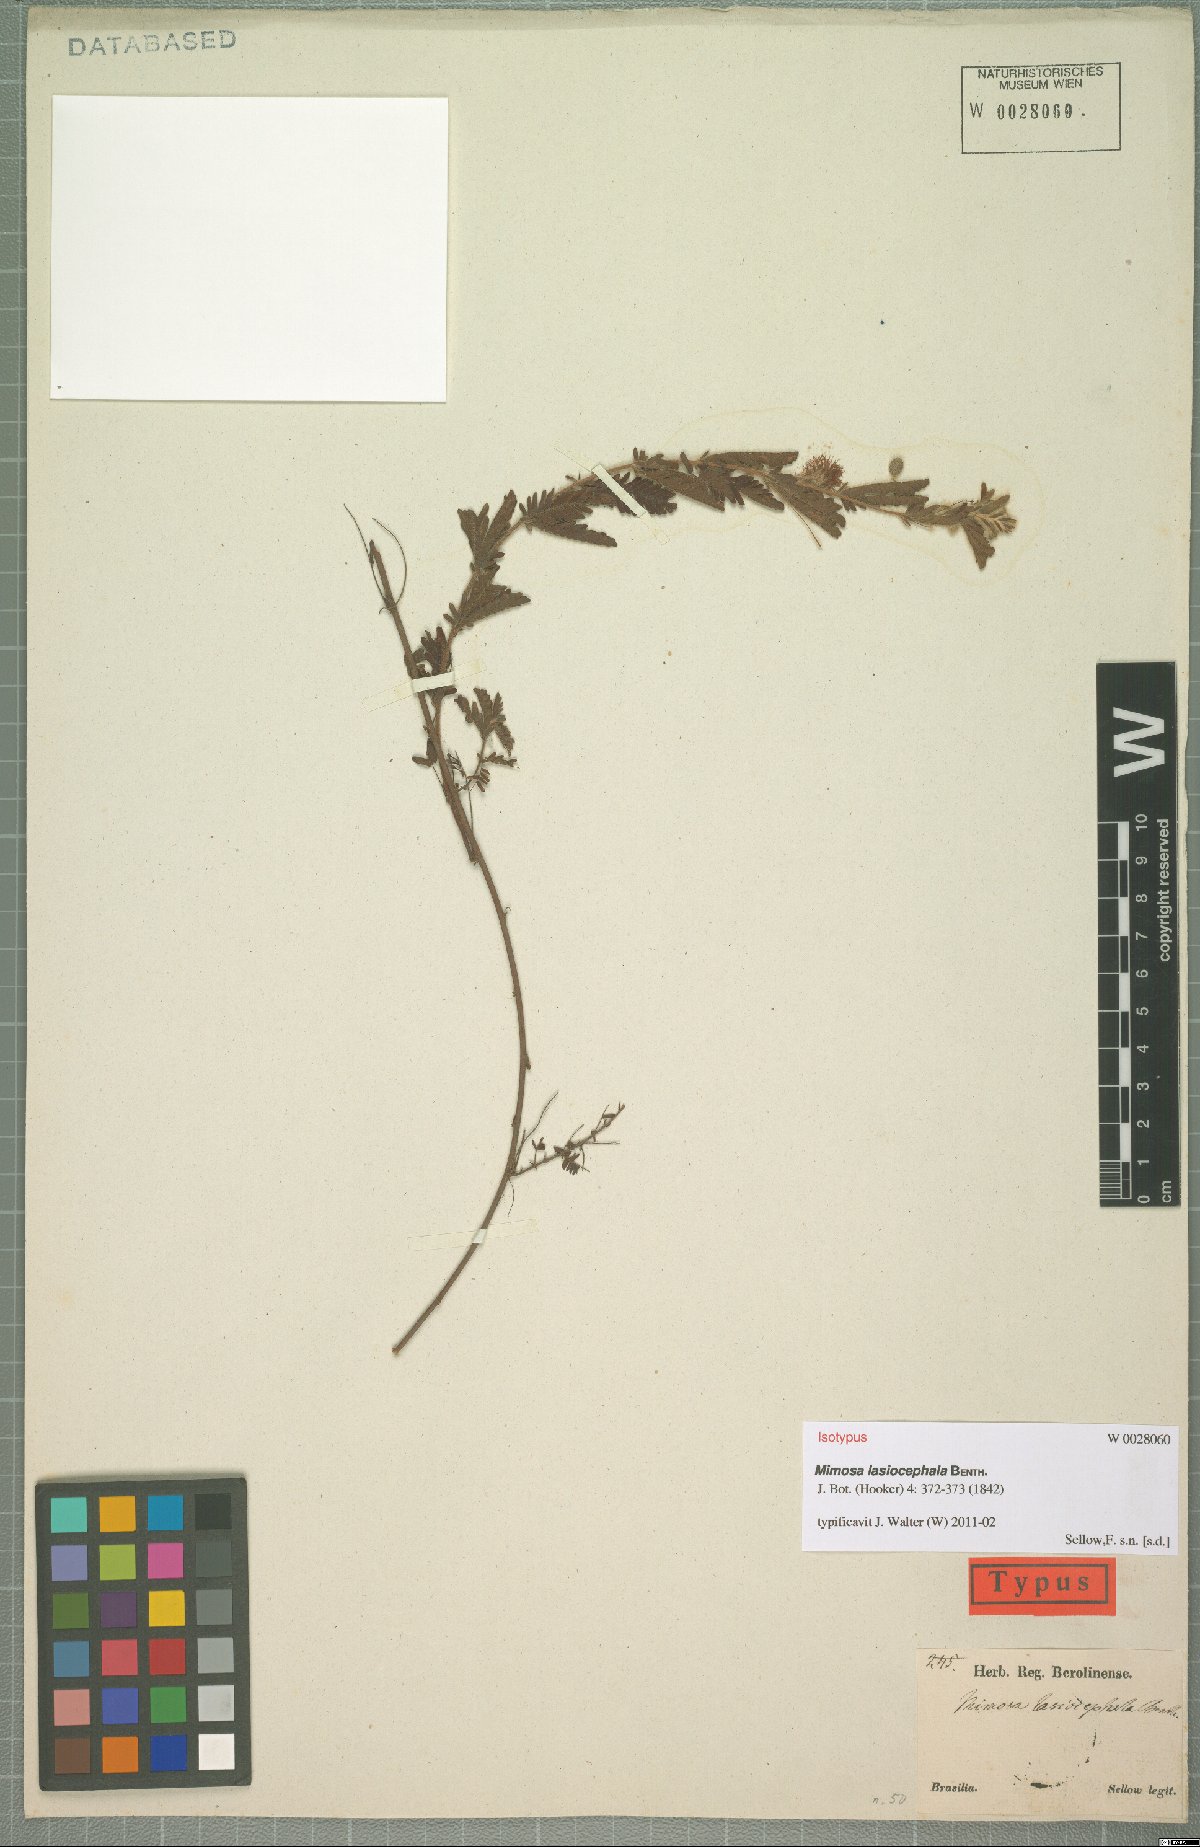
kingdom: Plantae
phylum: Tracheophyta
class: Magnoliopsida
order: Fabales
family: Fabaceae
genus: Mimosa
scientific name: Mimosa lasiocephala
